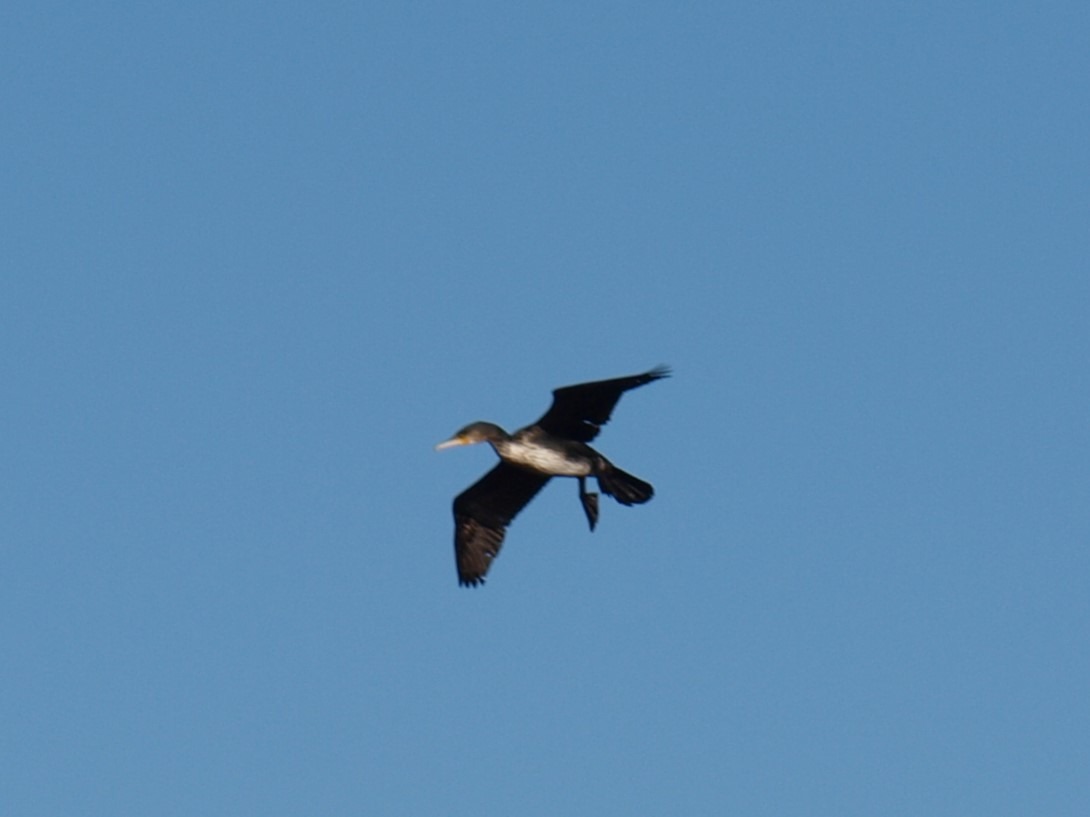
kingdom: Animalia
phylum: Chordata
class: Aves
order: Suliformes
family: Phalacrocoracidae
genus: Phalacrocorax
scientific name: Phalacrocorax carbo
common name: Skarv
